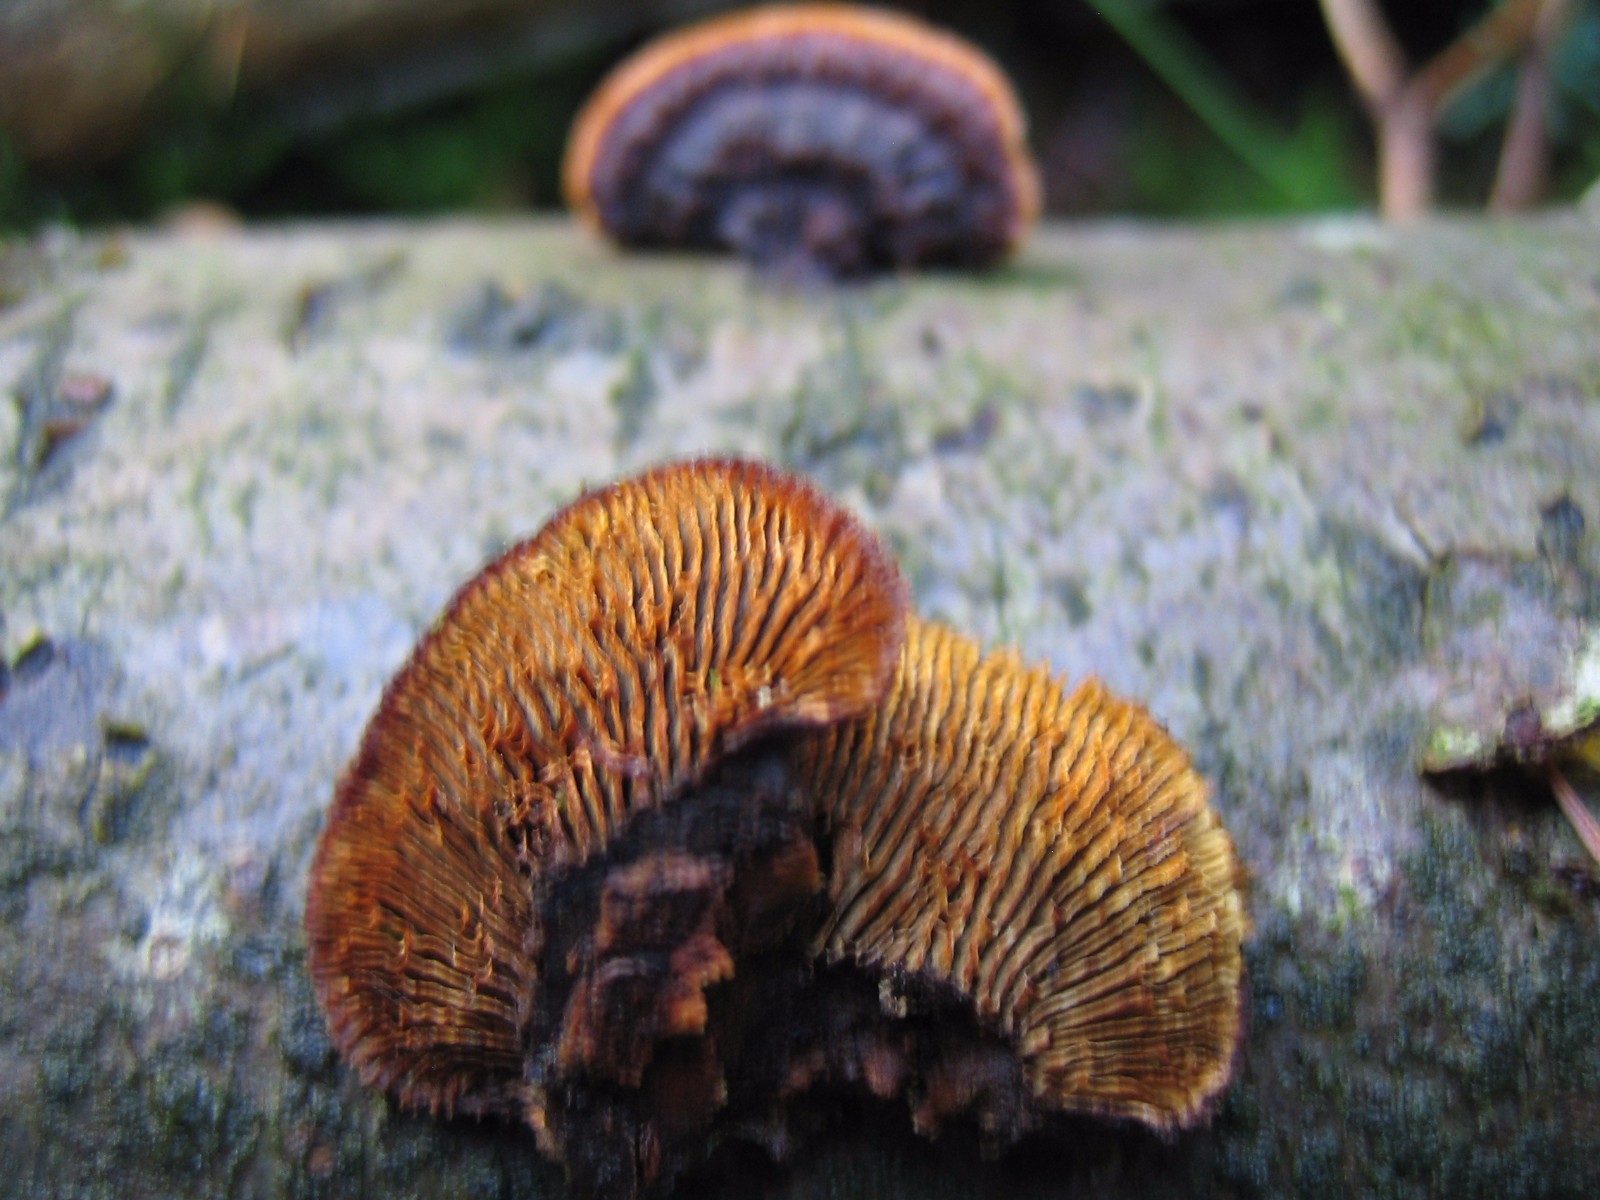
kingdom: Fungi
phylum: Basidiomycota
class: Agaricomycetes
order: Gloeophyllales
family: Gloeophyllaceae
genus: Gloeophyllum
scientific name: Gloeophyllum sepiarium
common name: fyrre-korkhat
